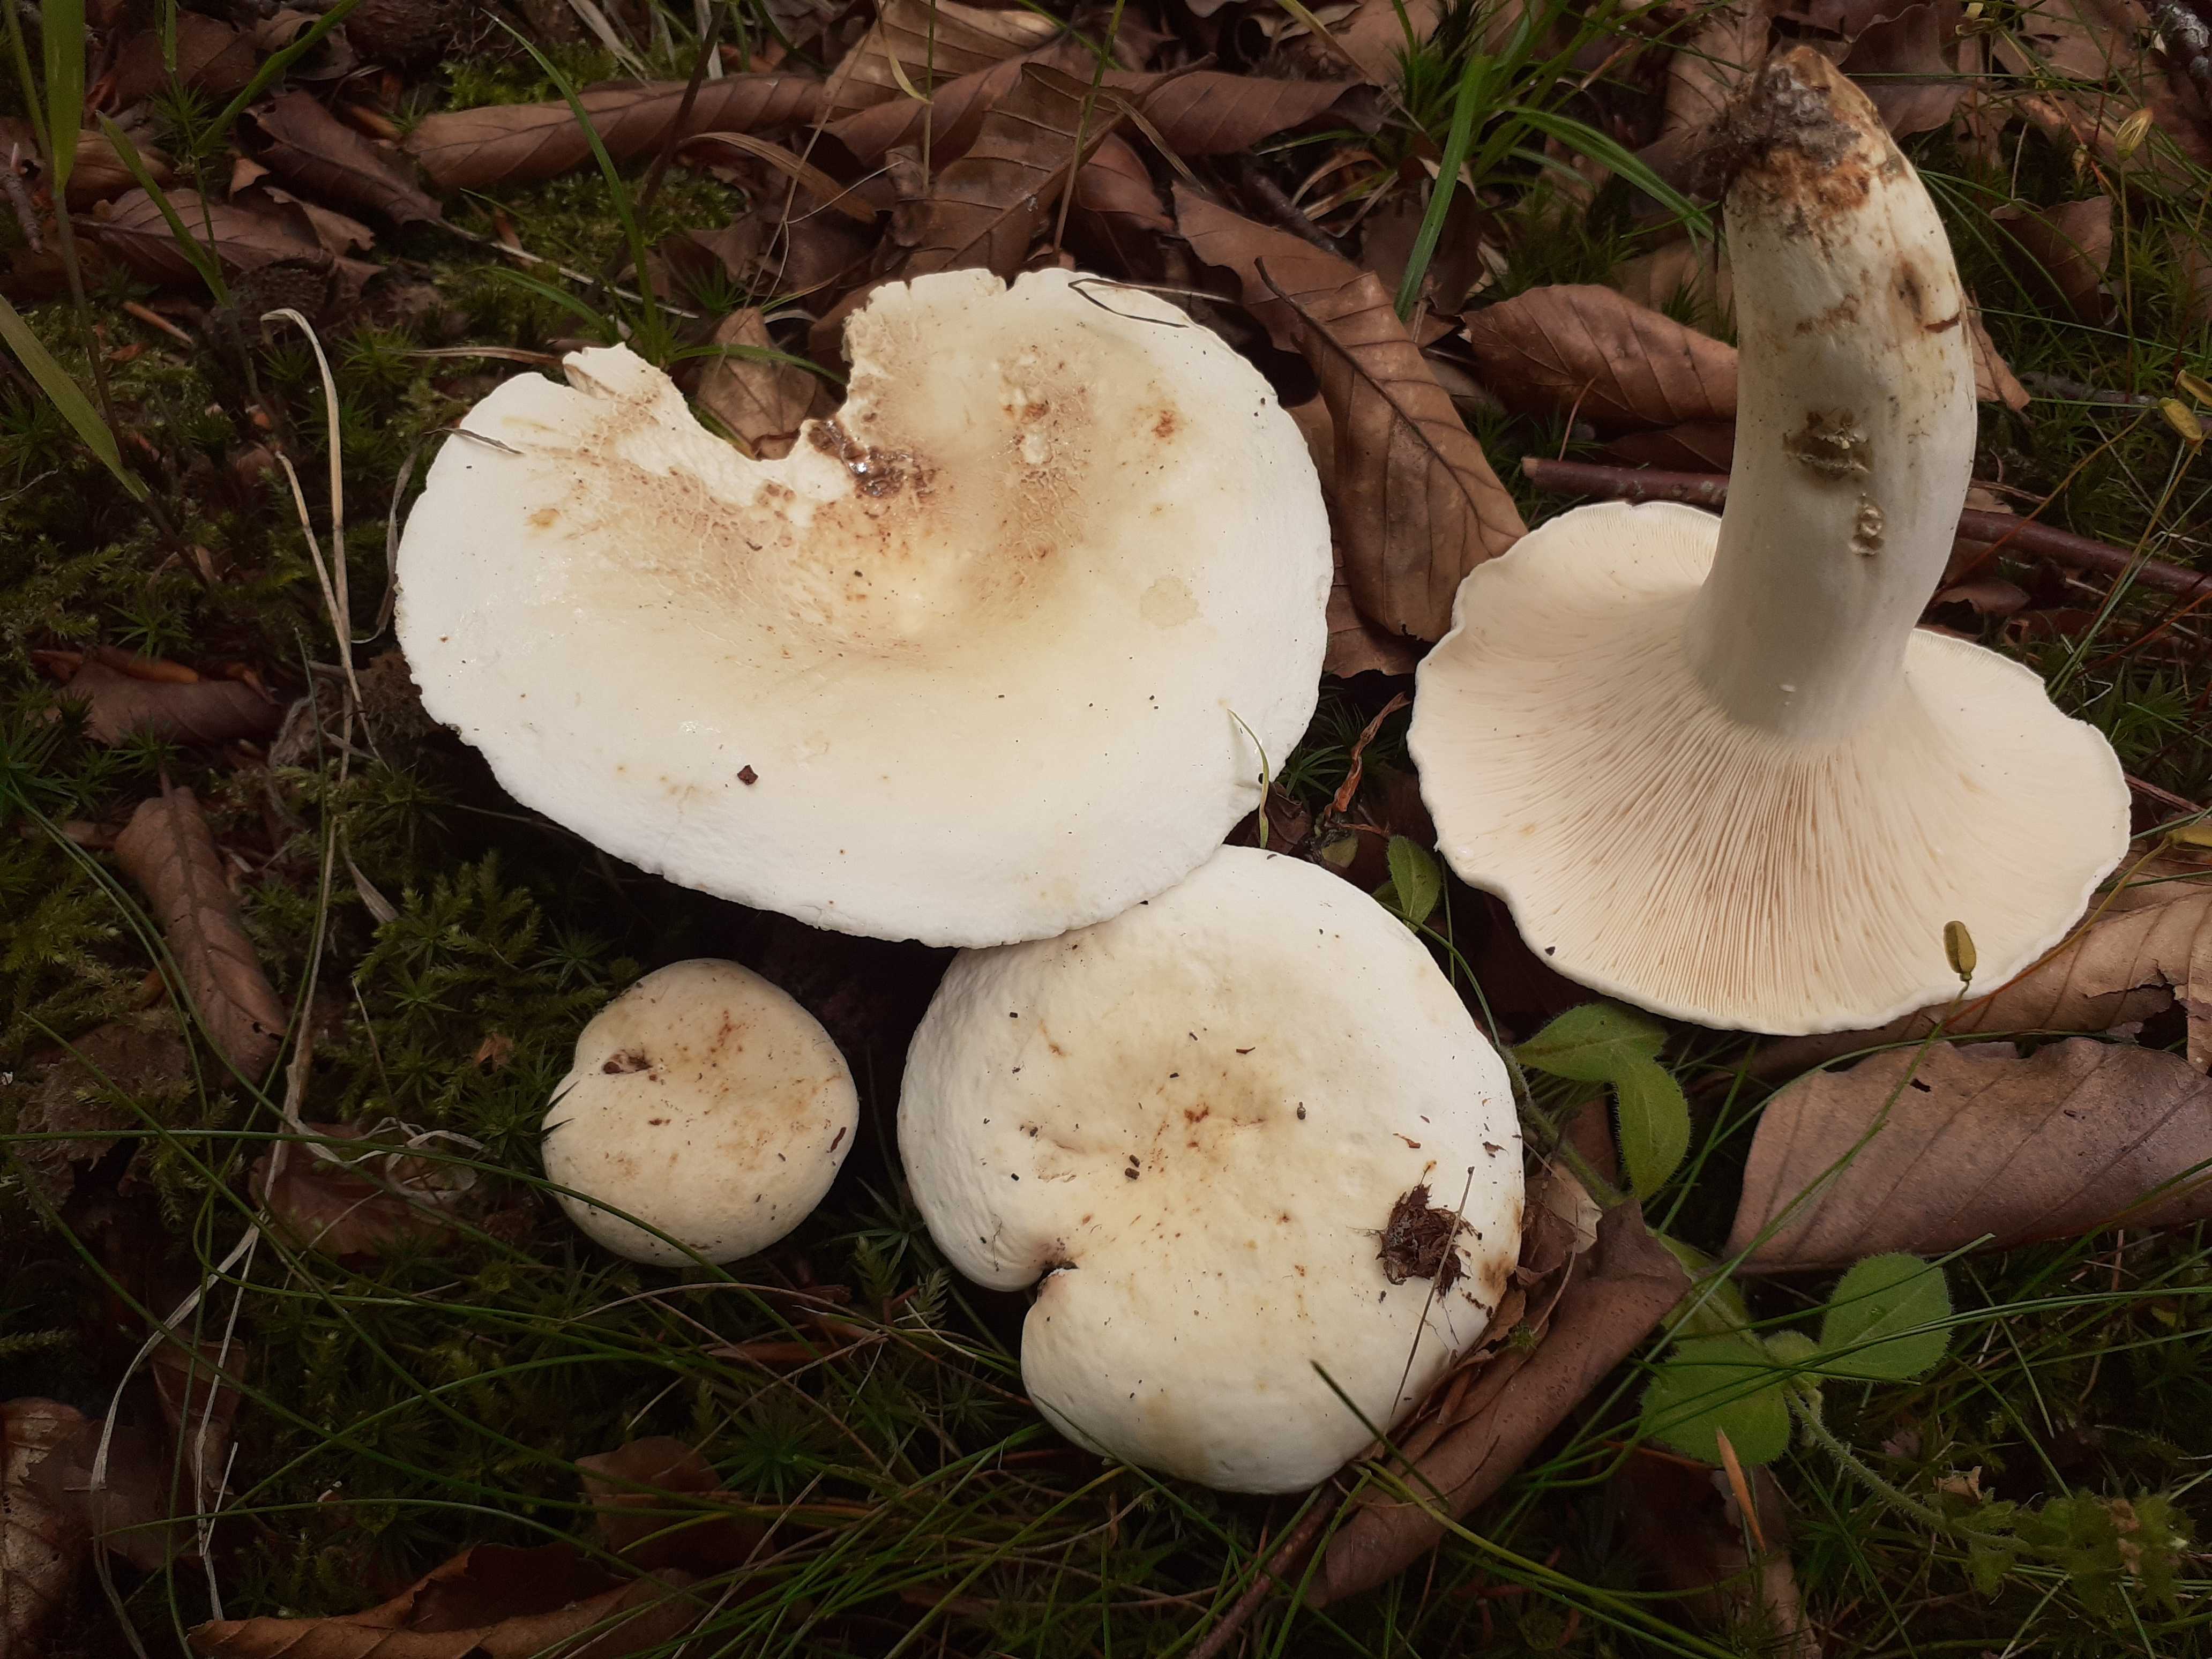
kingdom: Fungi
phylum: Basidiomycota
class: Agaricomycetes
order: Russulales
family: Russulaceae
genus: Lactifluus
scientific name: Lactifluus piperatus
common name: peber-mælkehat
